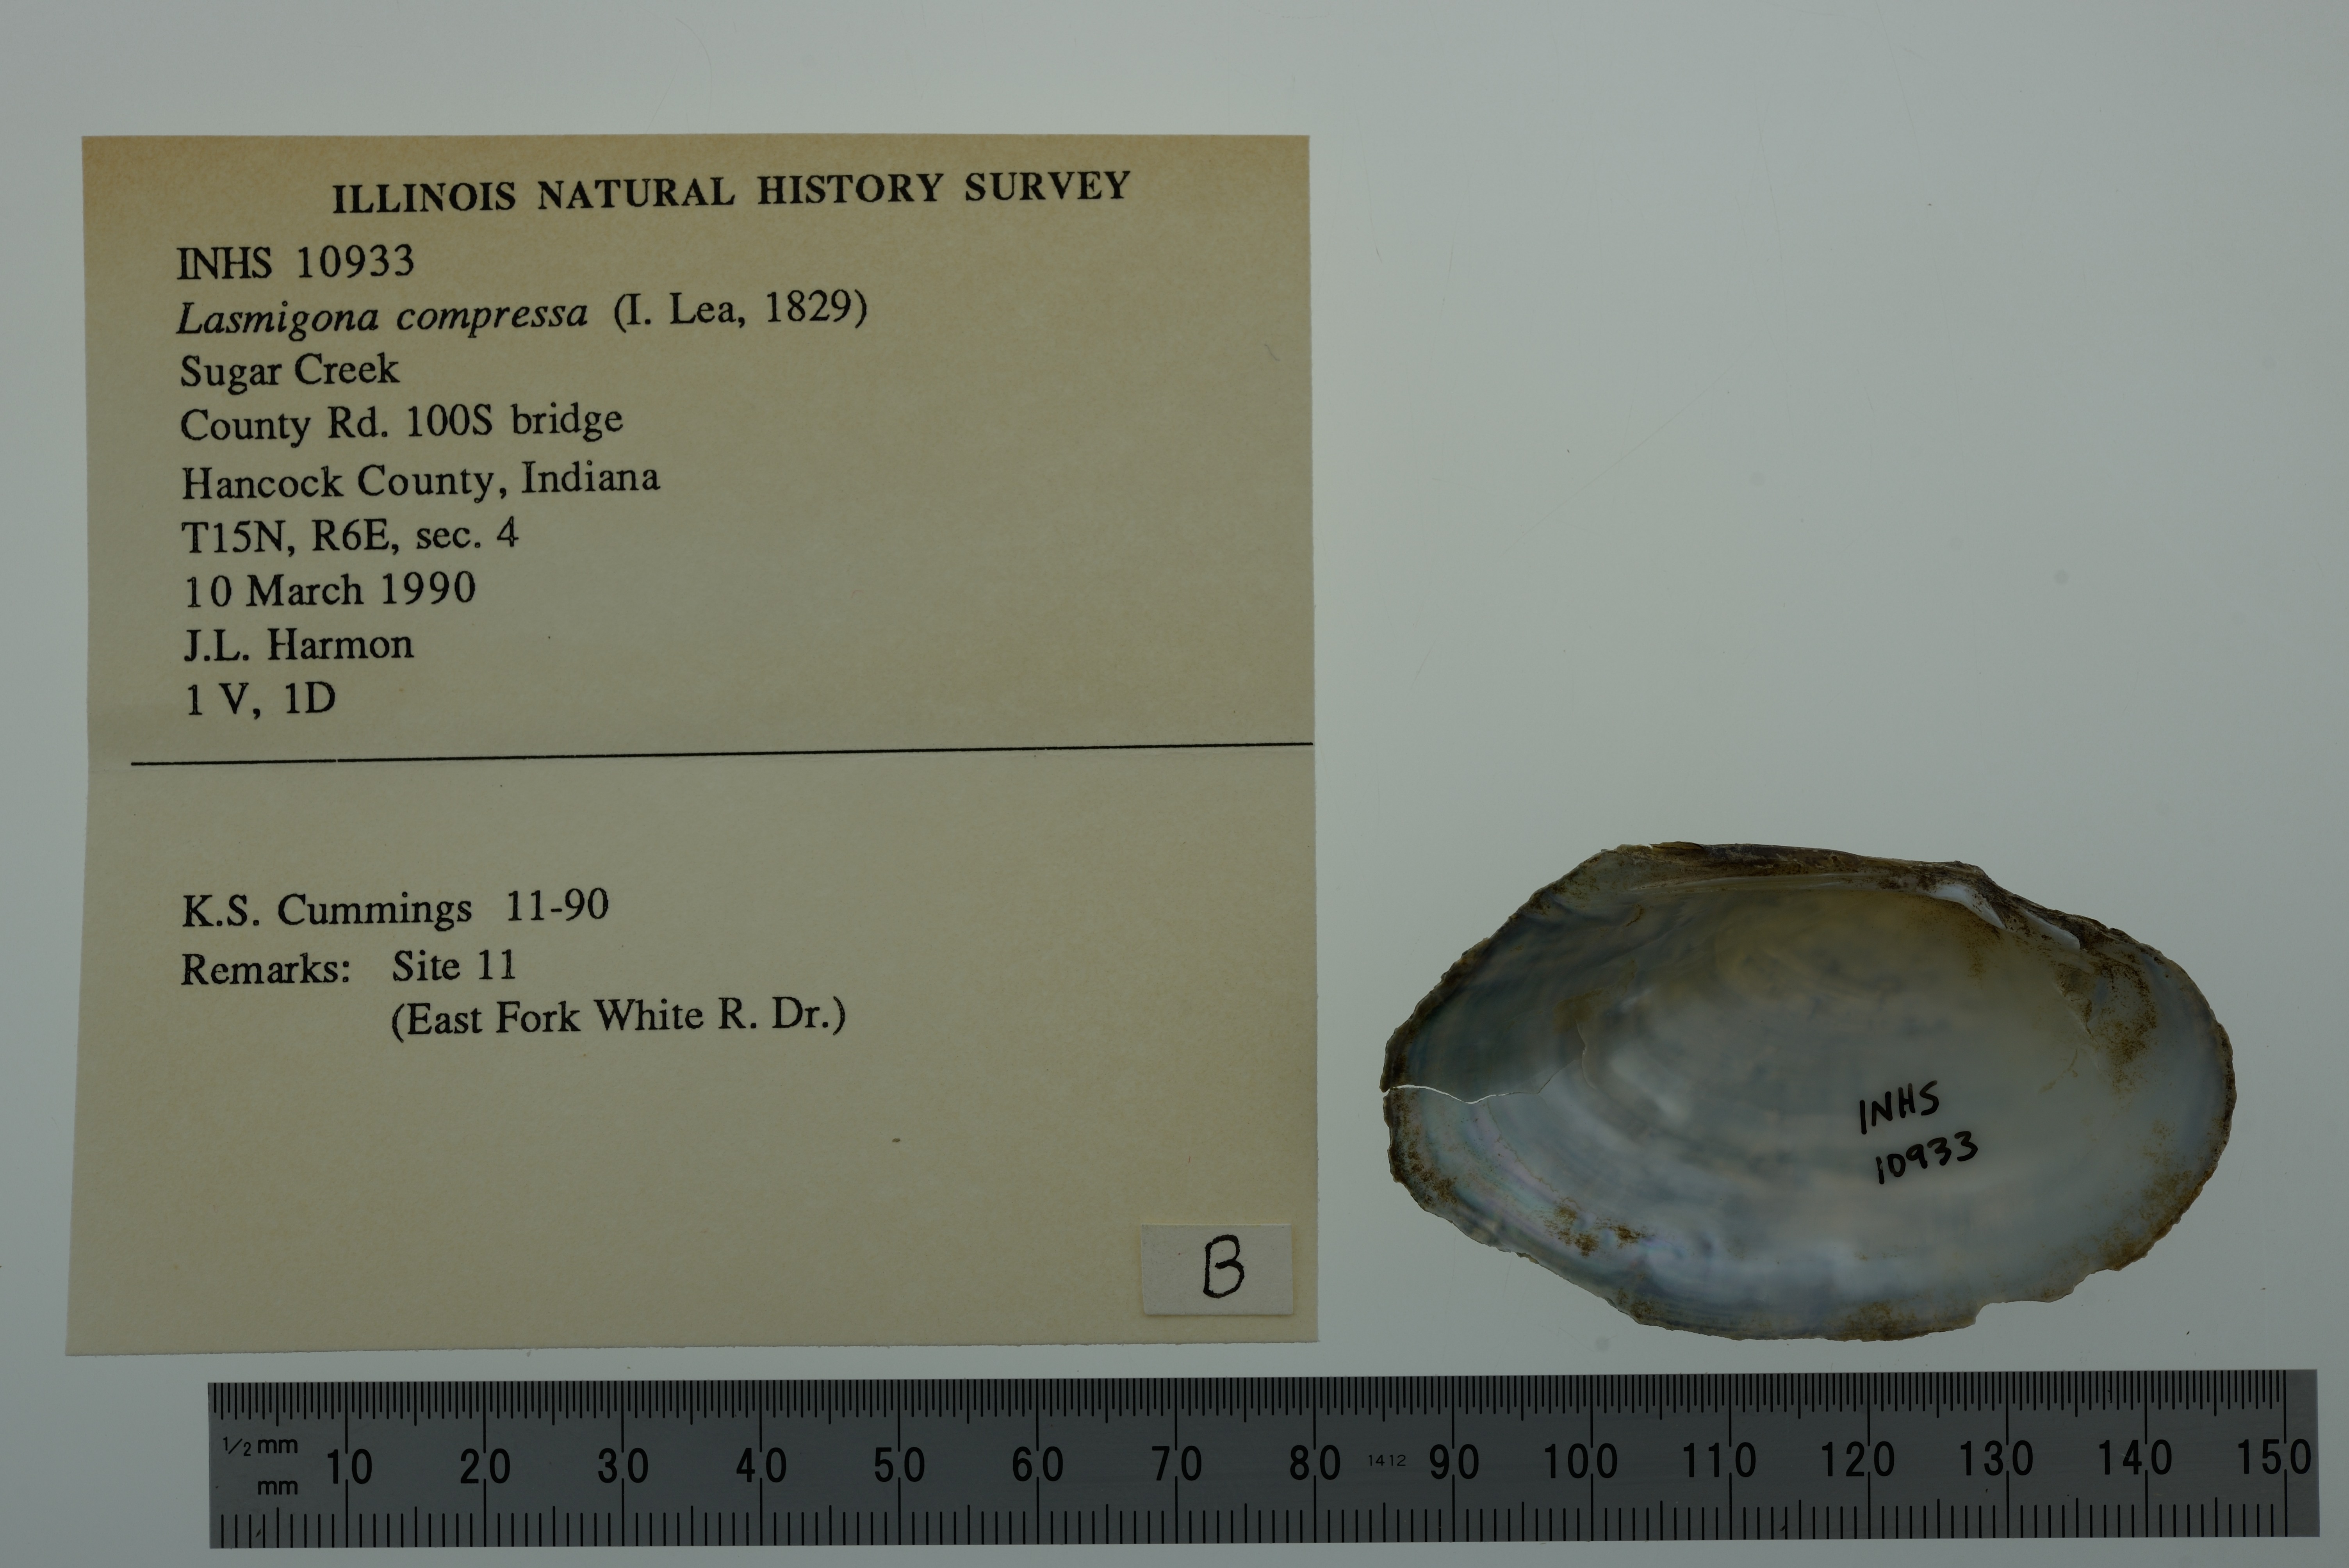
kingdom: Animalia
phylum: Mollusca
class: Bivalvia
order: Unionida
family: Unionidae
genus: Lasmigona
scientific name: Lasmigona compressa
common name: Creek heelsplitter
